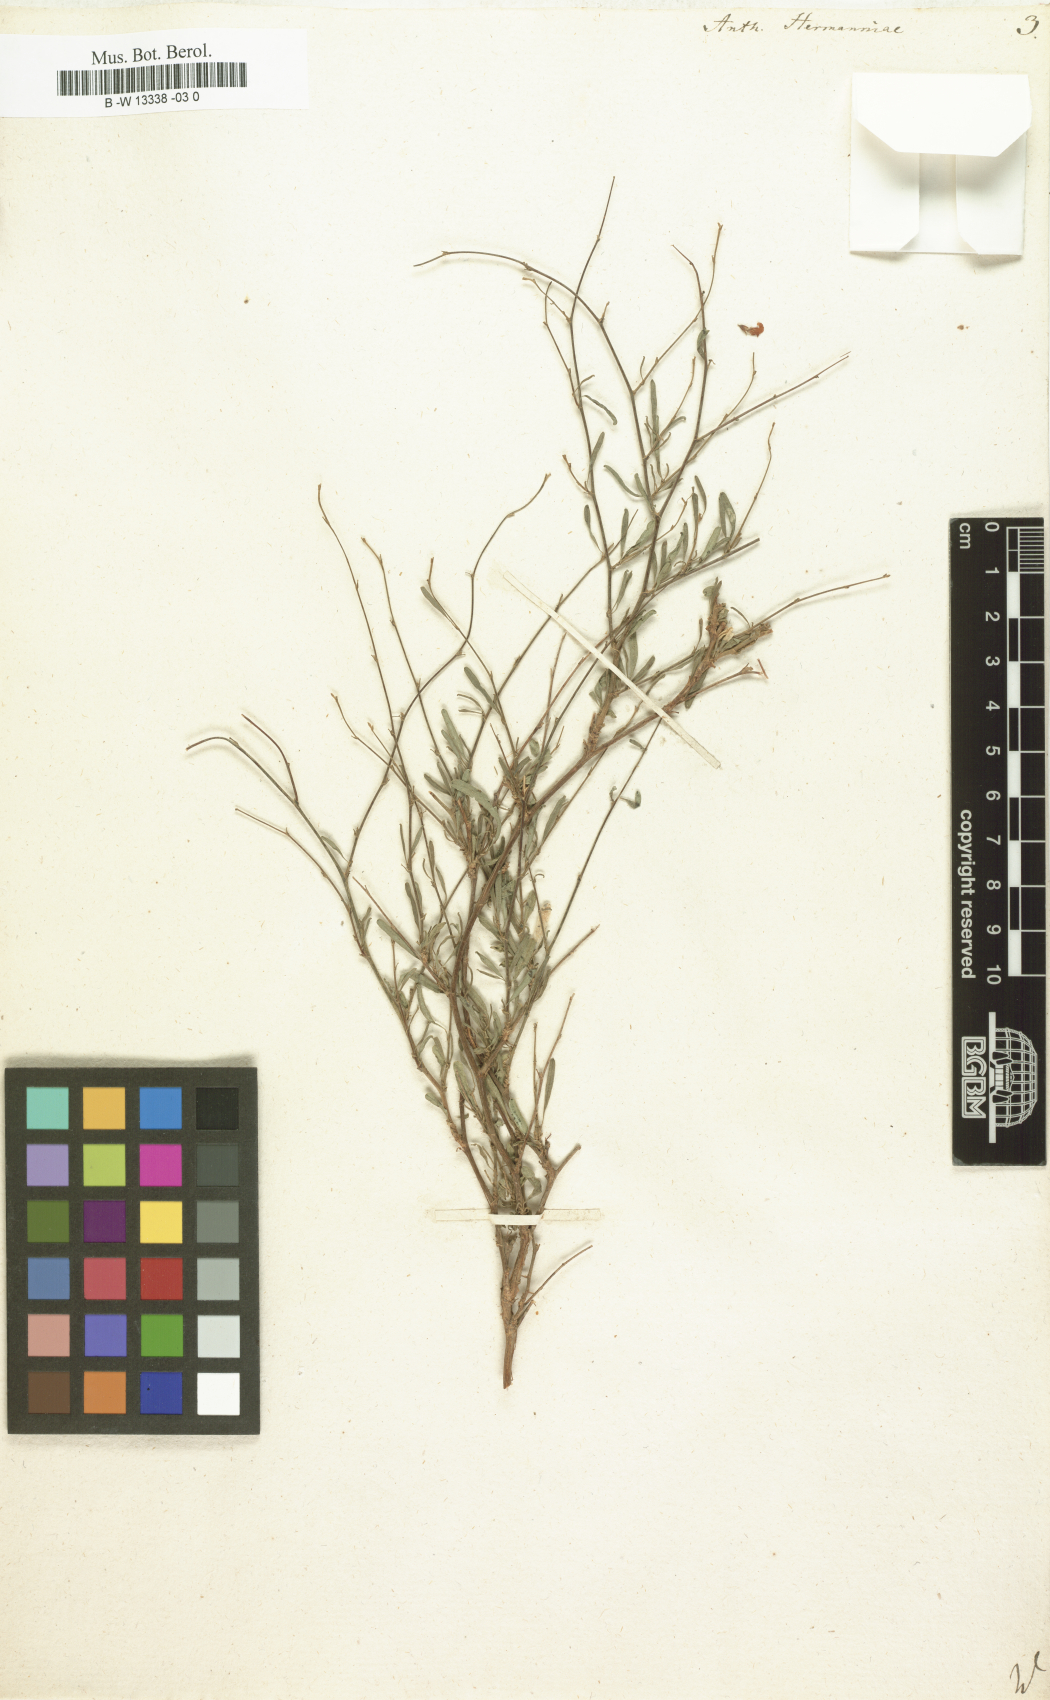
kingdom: Plantae
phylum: Tracheophyta
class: Magnoliopsida
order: Fabales
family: Fabaceae
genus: Anthyllis
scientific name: Anthyllis hermanniae
